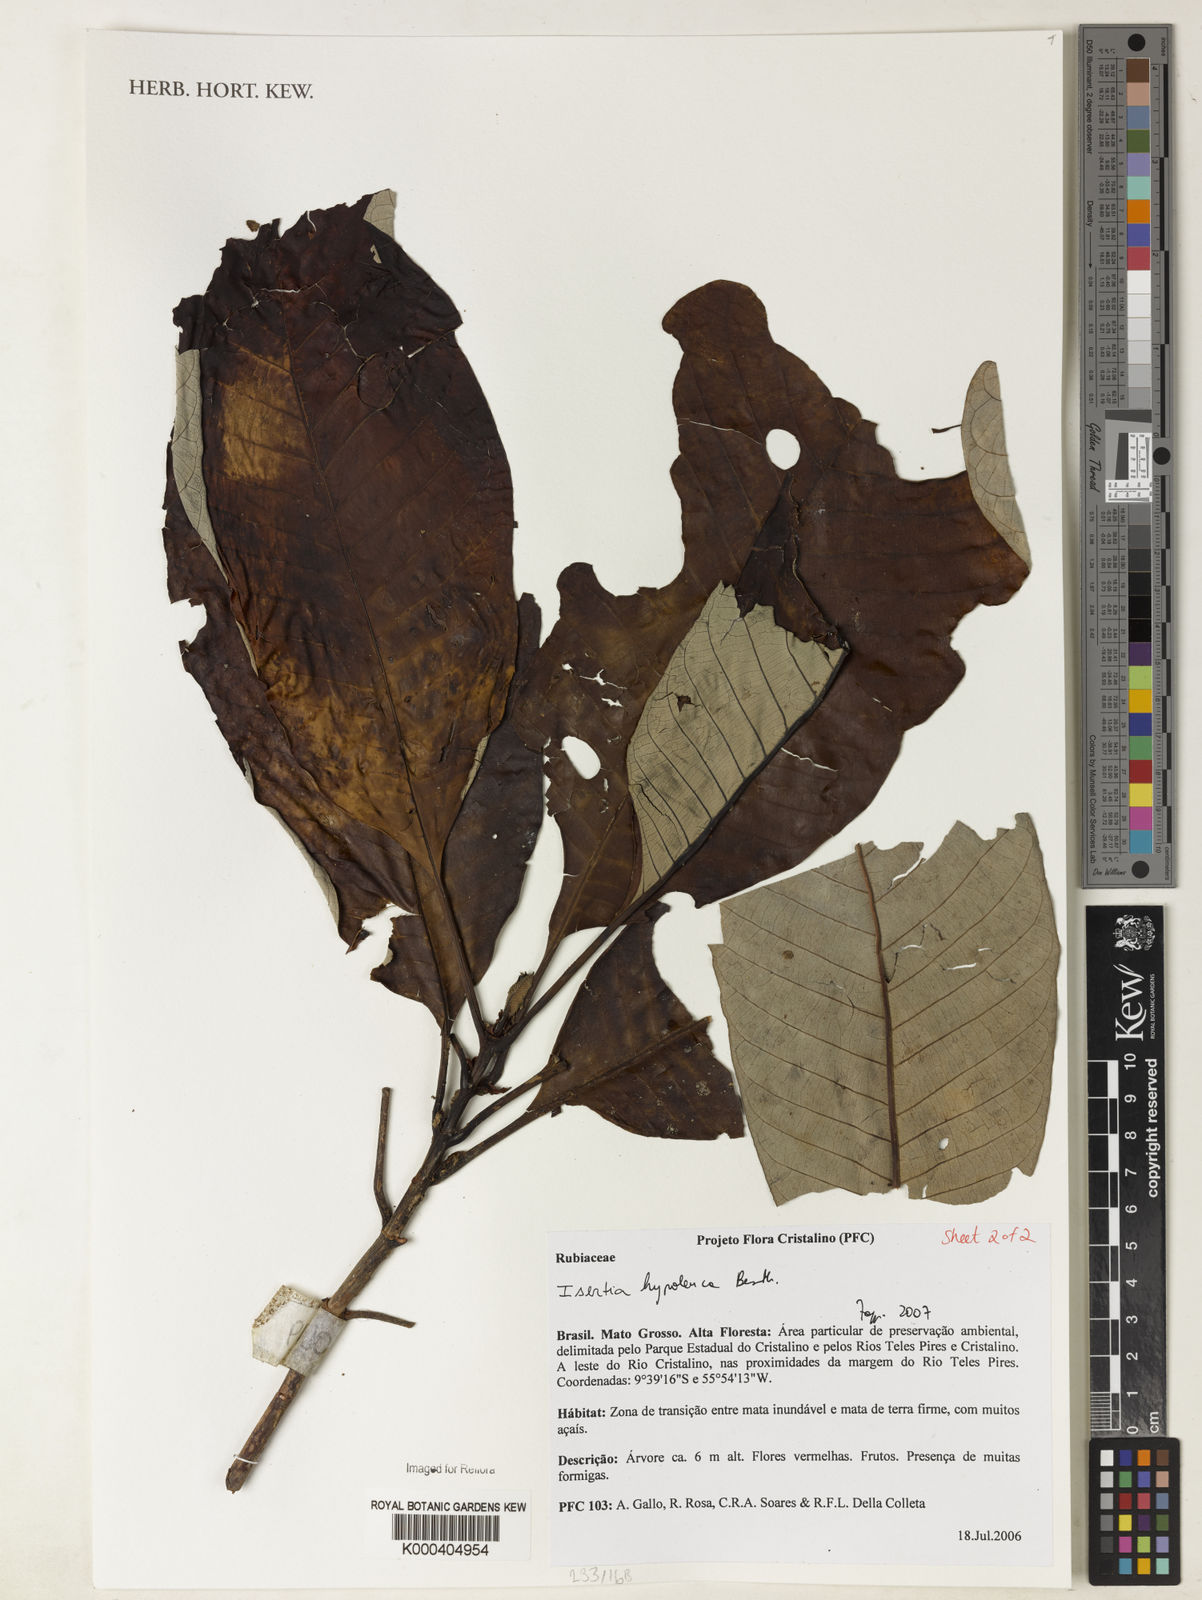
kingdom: Plantae
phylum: Tracheophyta
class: Magnoliopsida
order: Gentianales
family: Rubiaceae
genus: Isertia
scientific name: Isertia hypoleuca
